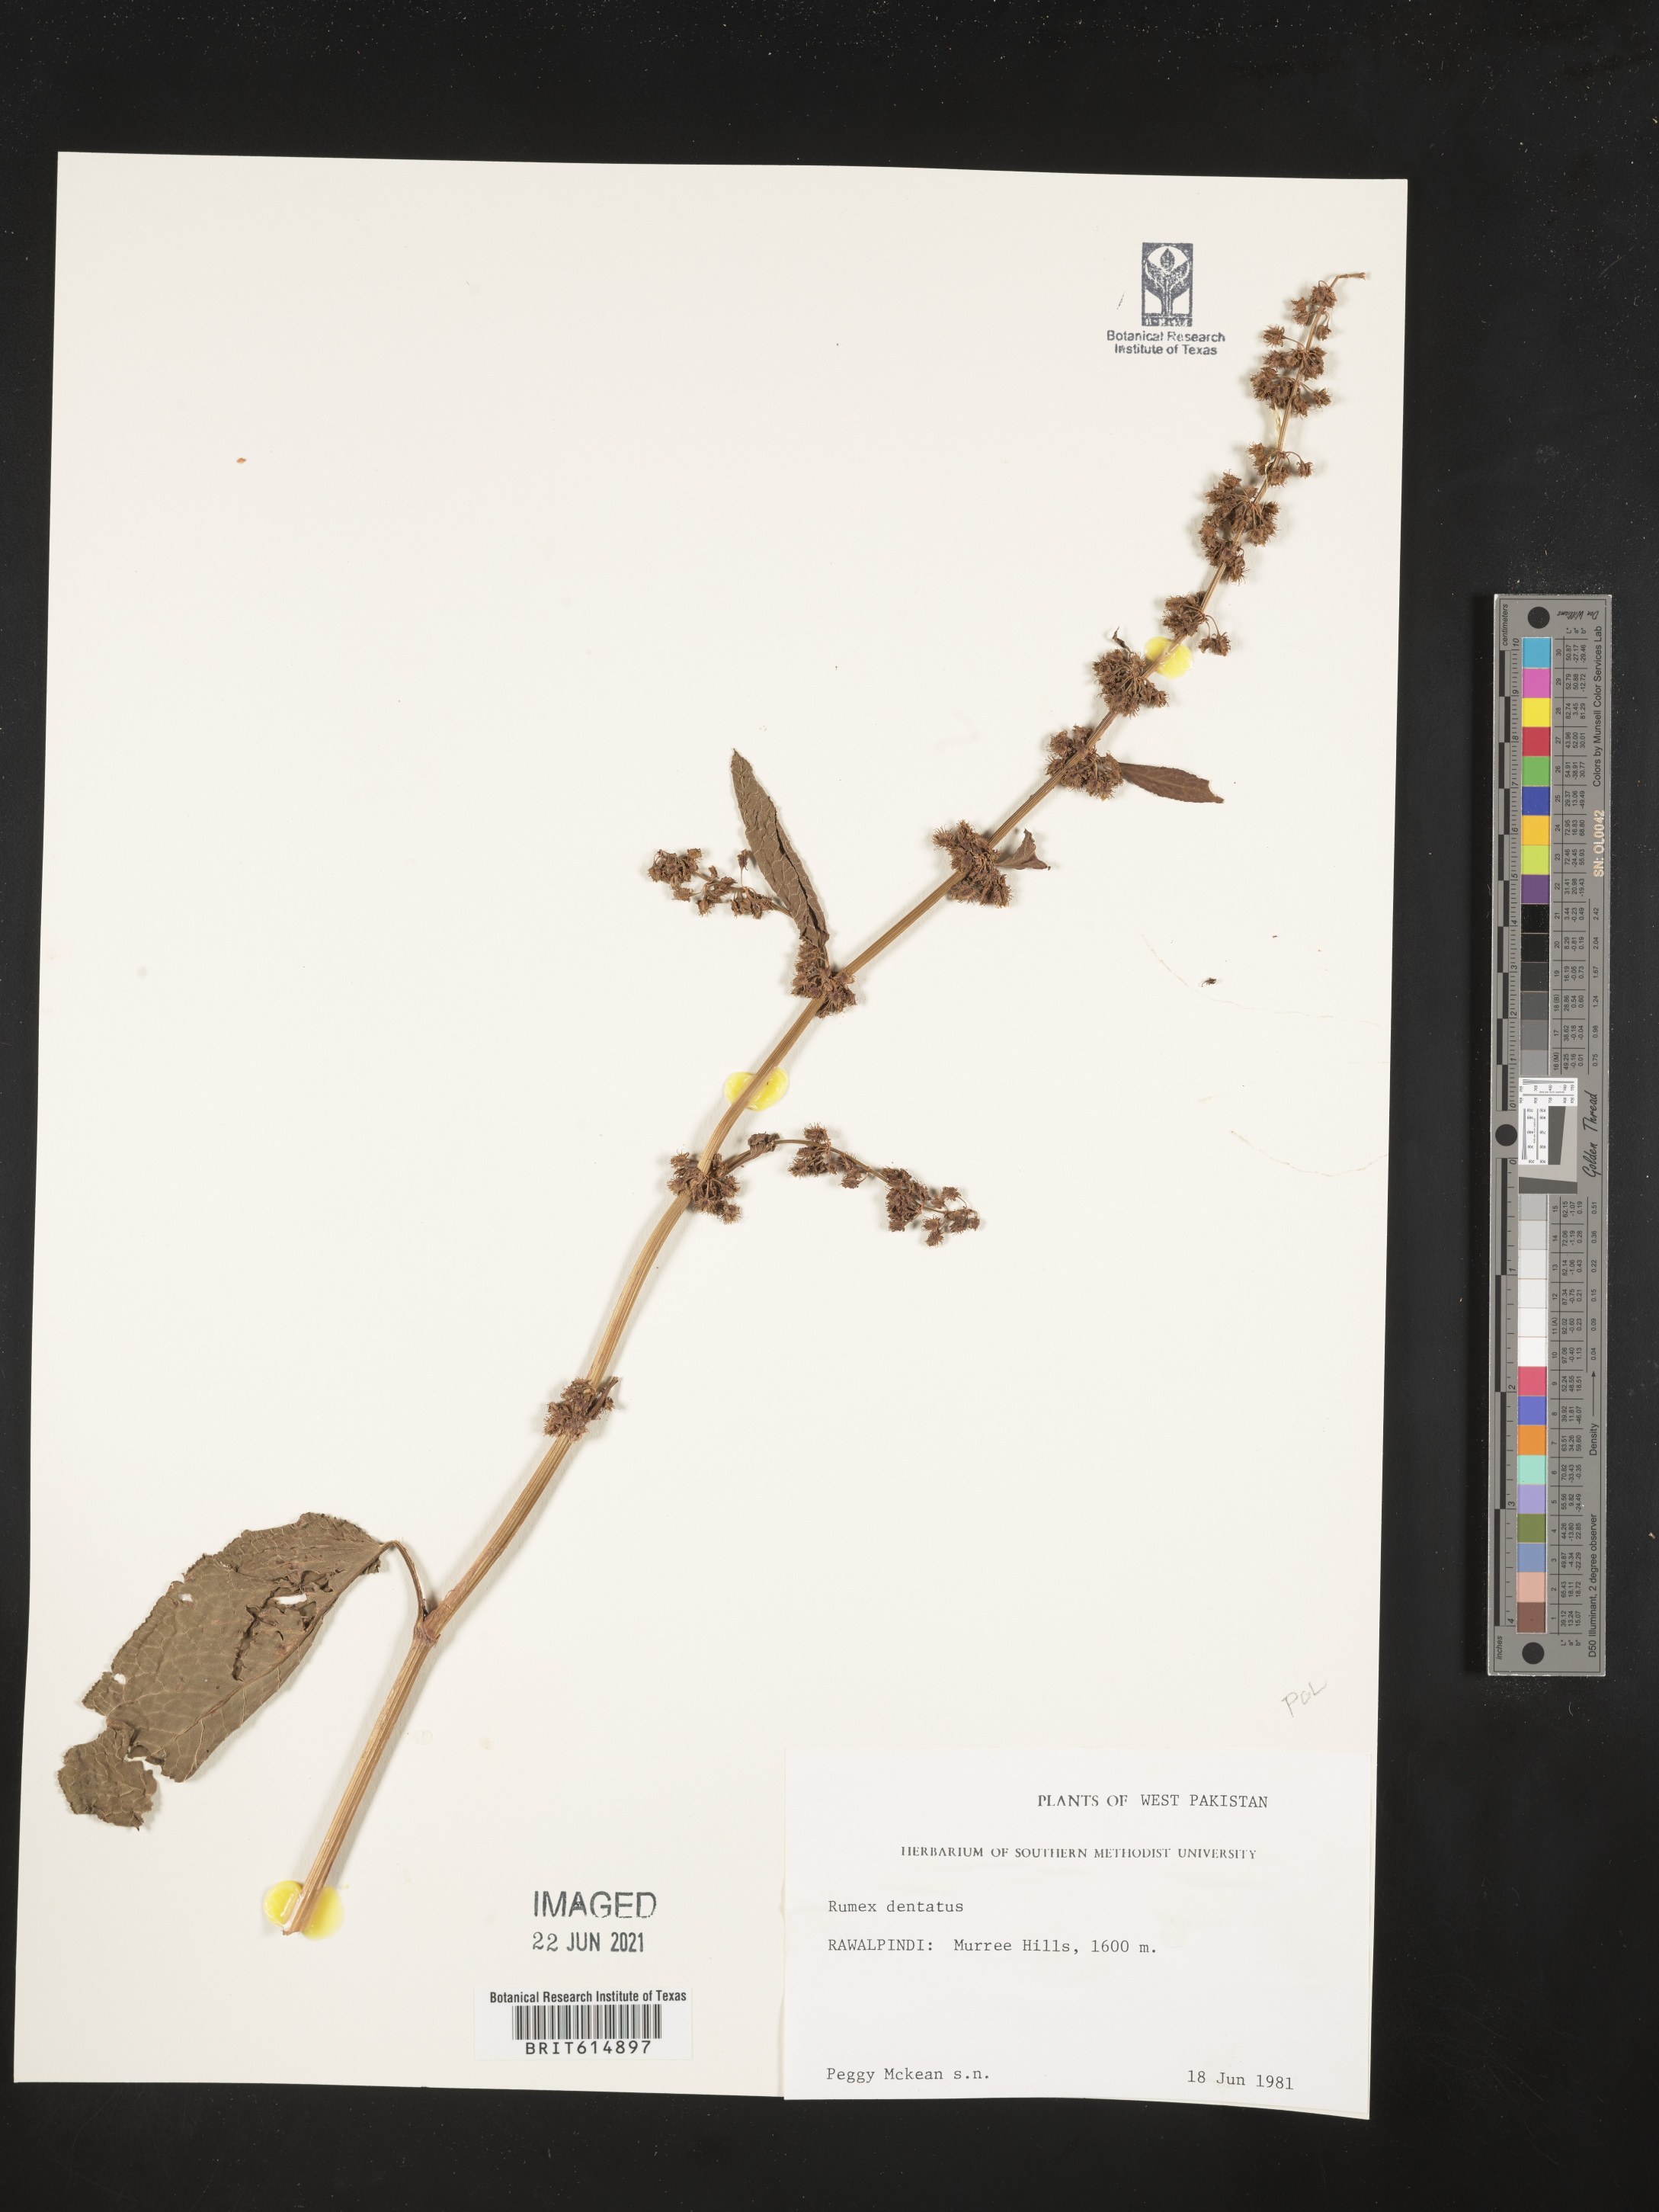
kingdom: Plantae
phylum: Tracheophyta
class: Magnoliopsida
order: Caryophyllales
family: Polygonaceae
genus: Rumex
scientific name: Rumex dentatus
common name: Toothed dock
